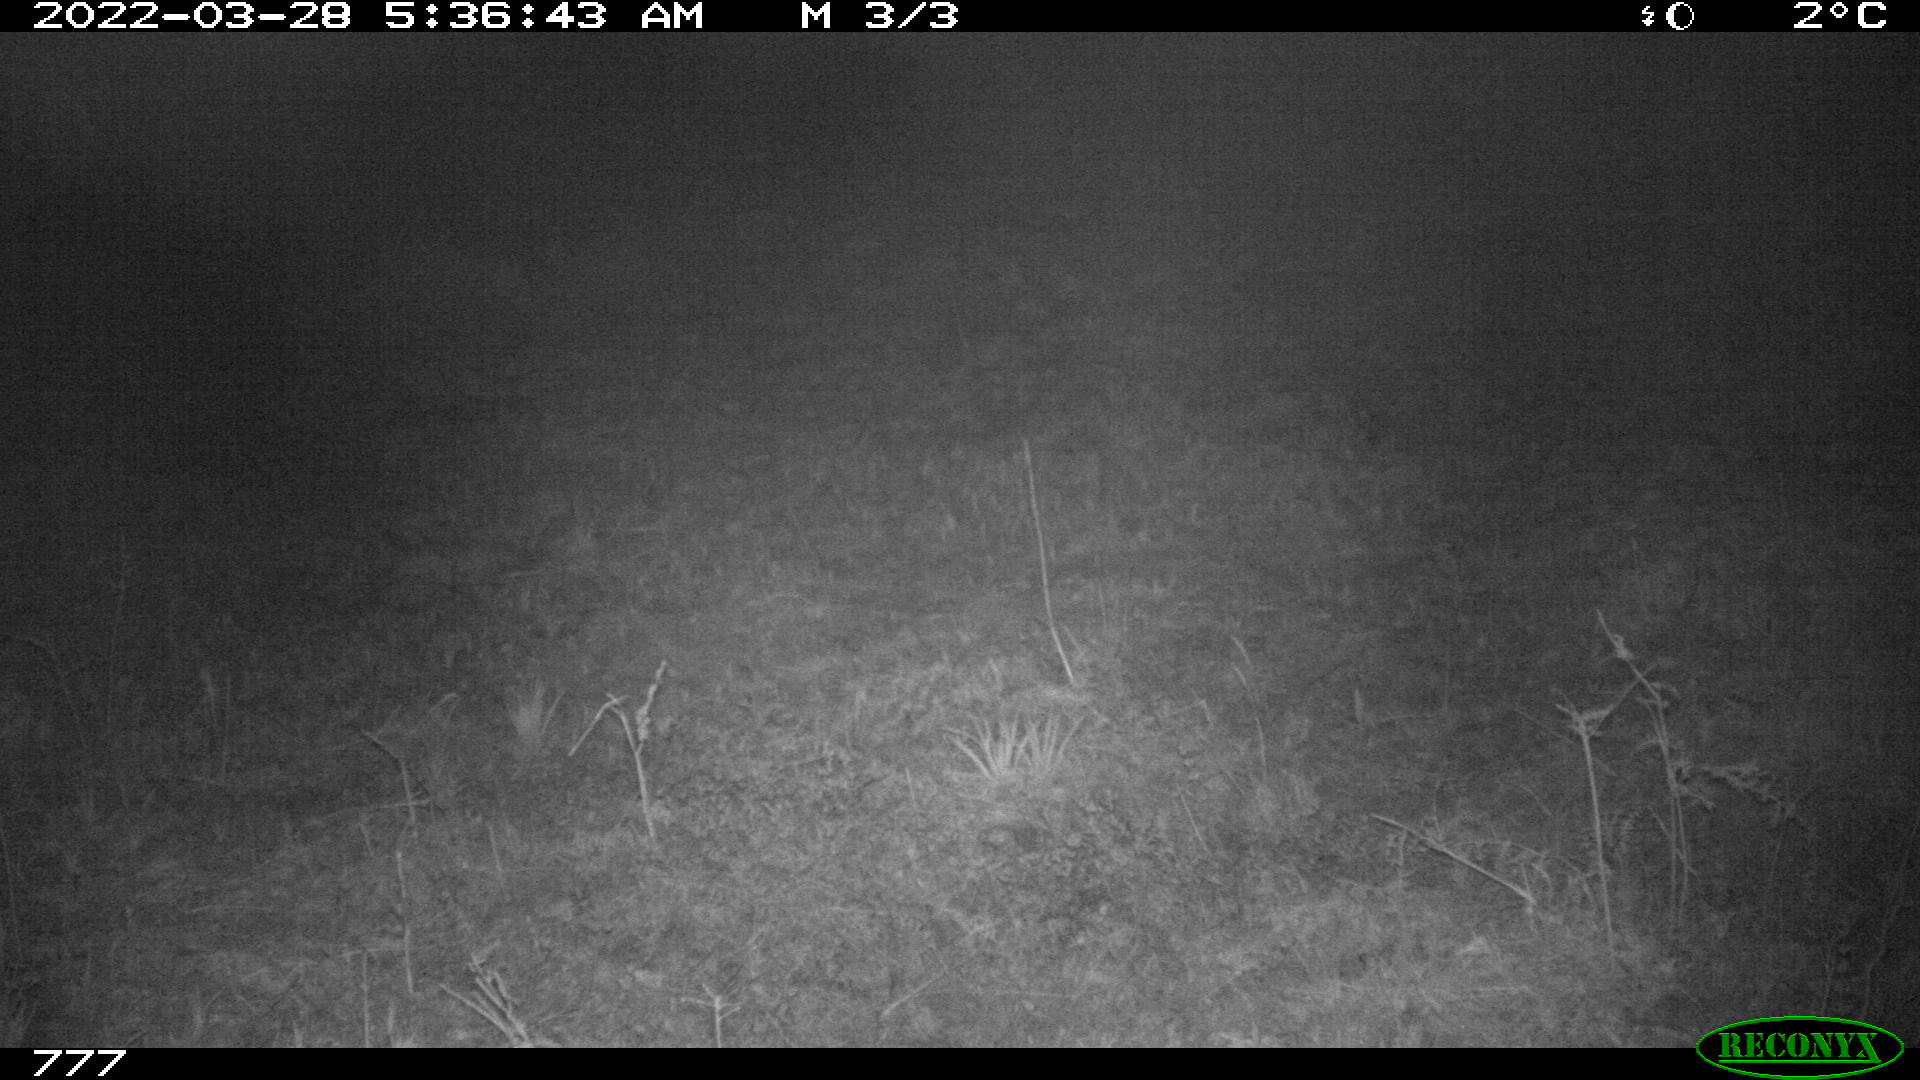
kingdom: Animalia
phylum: Chordata
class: Mammalia
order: Artiodactyla
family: Cervidae
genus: Capreolus
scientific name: Capreolus capreolus
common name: Western roe deer
